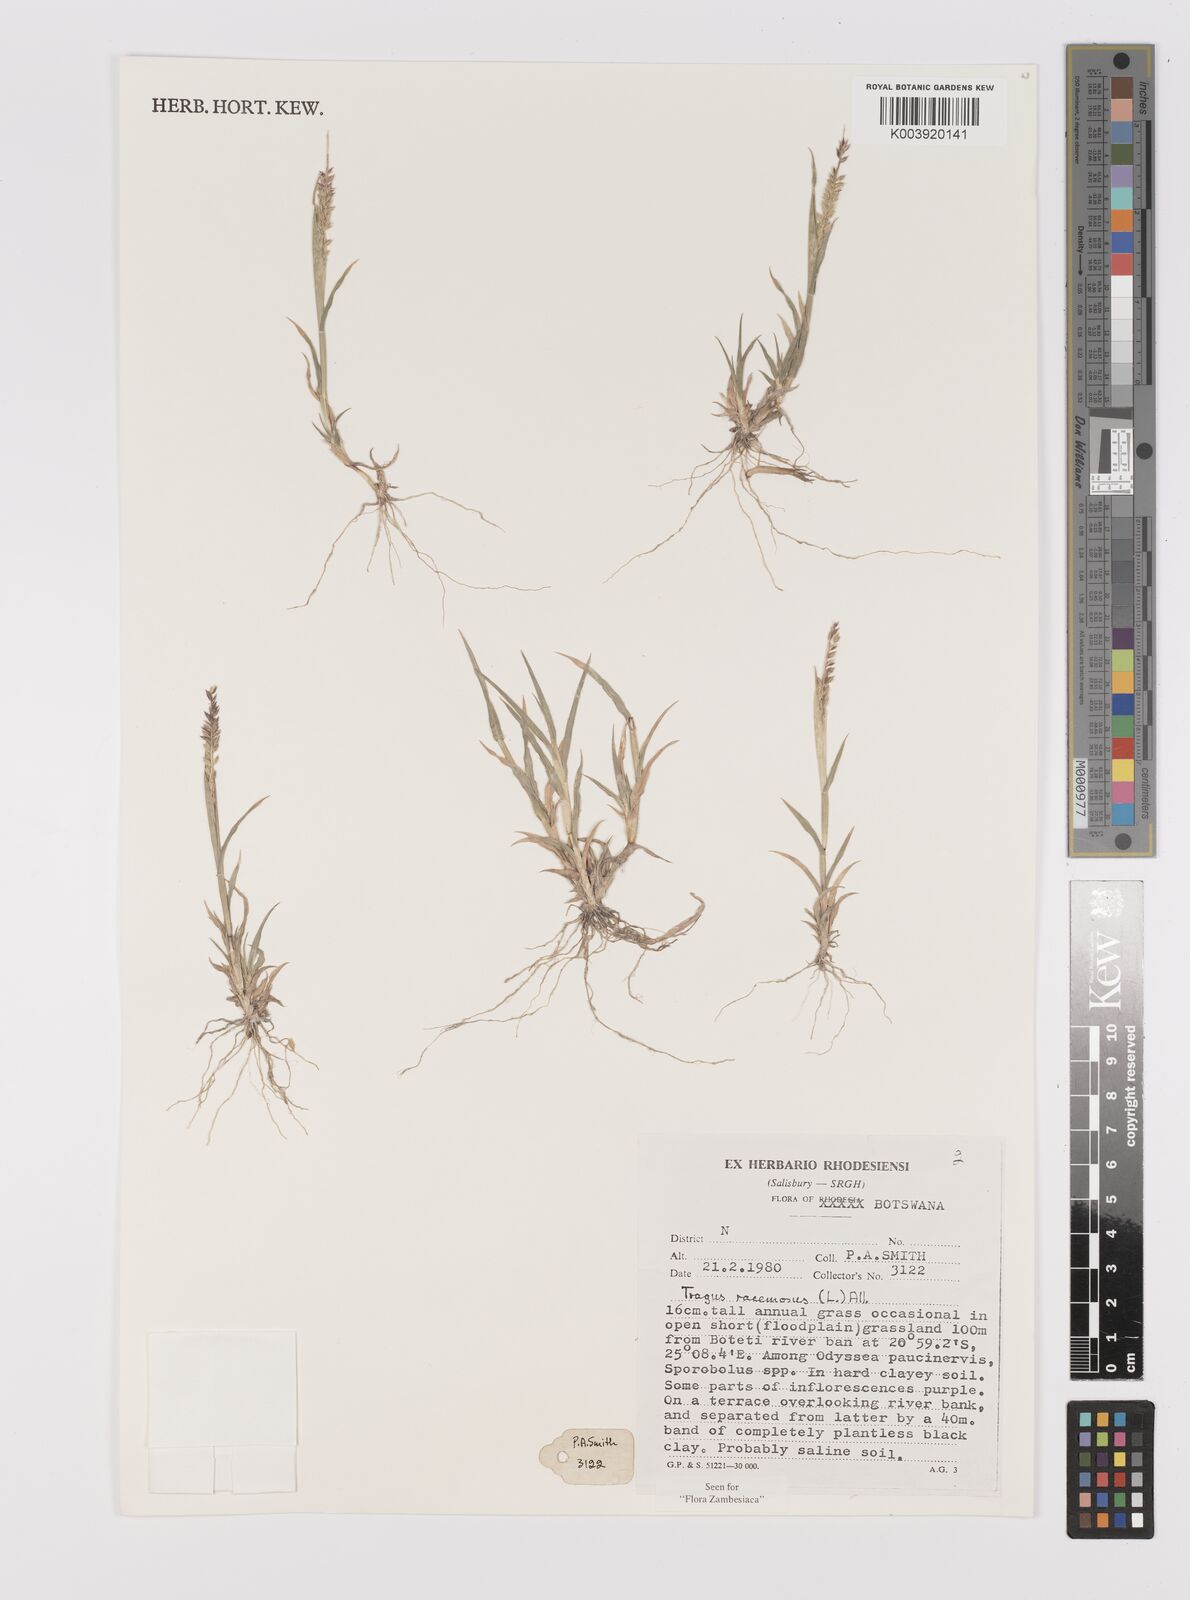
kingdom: Plantae
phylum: Tracheophyta
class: Liliopsida
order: Poales
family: Poaceae
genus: Tragus
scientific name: Tragus racemosus
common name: European bur-grass
